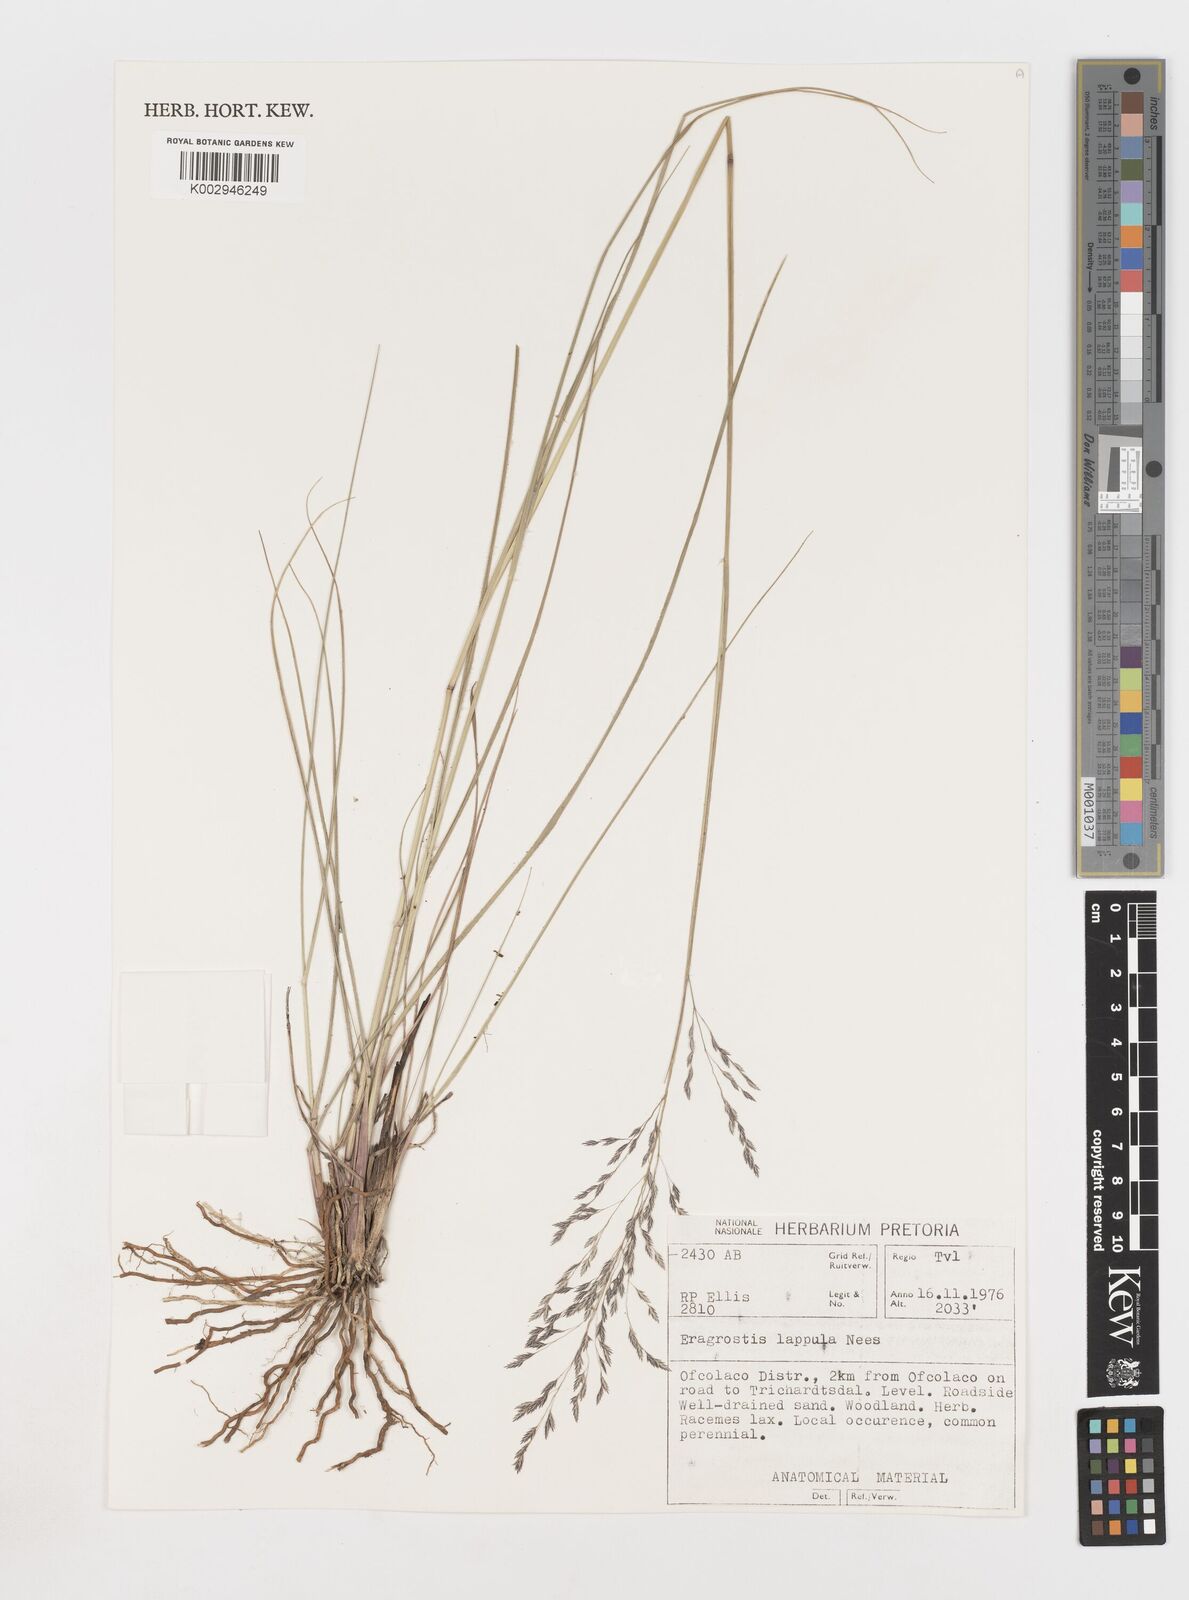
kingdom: Plantae
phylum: Tracheophyta
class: Liliopsida
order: Poales
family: Poaceae
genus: Eragrostis
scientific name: Eragrostis lappula
